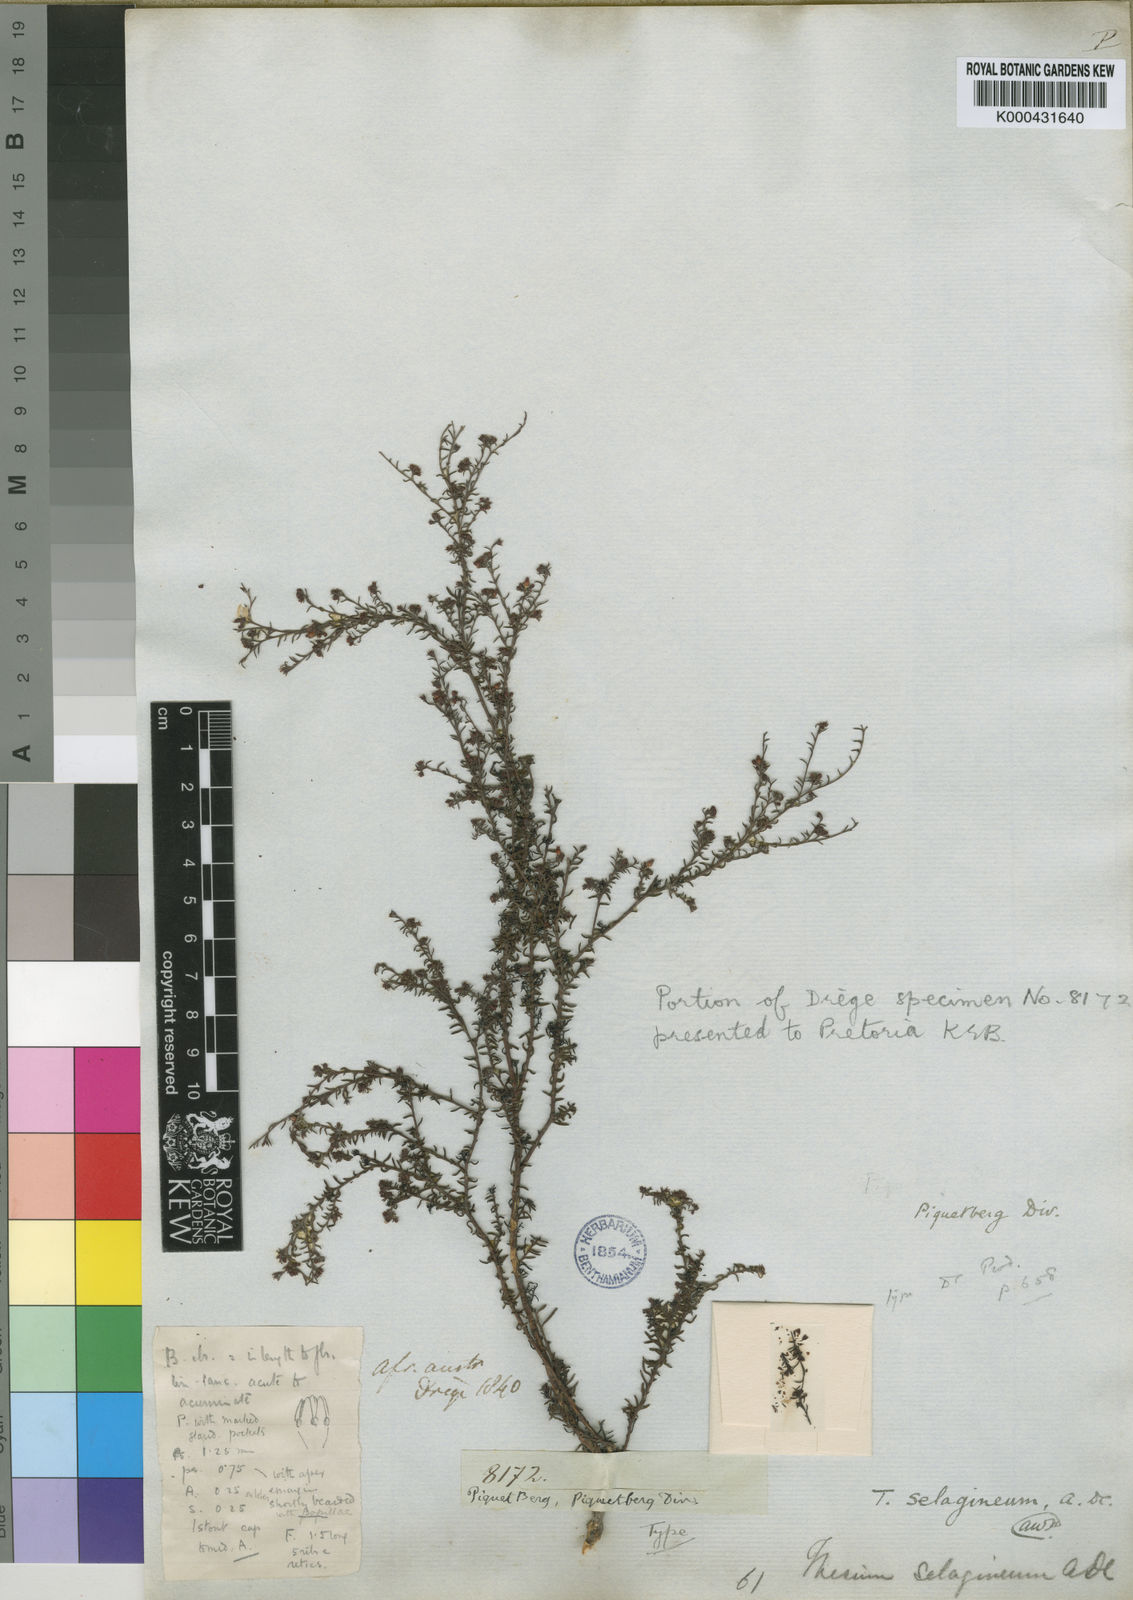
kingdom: Plantae
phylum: Tracheophyta
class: Magnoliopsida
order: Santalales
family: Thesiaceae
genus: Thesium
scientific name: Thesium selagineum
